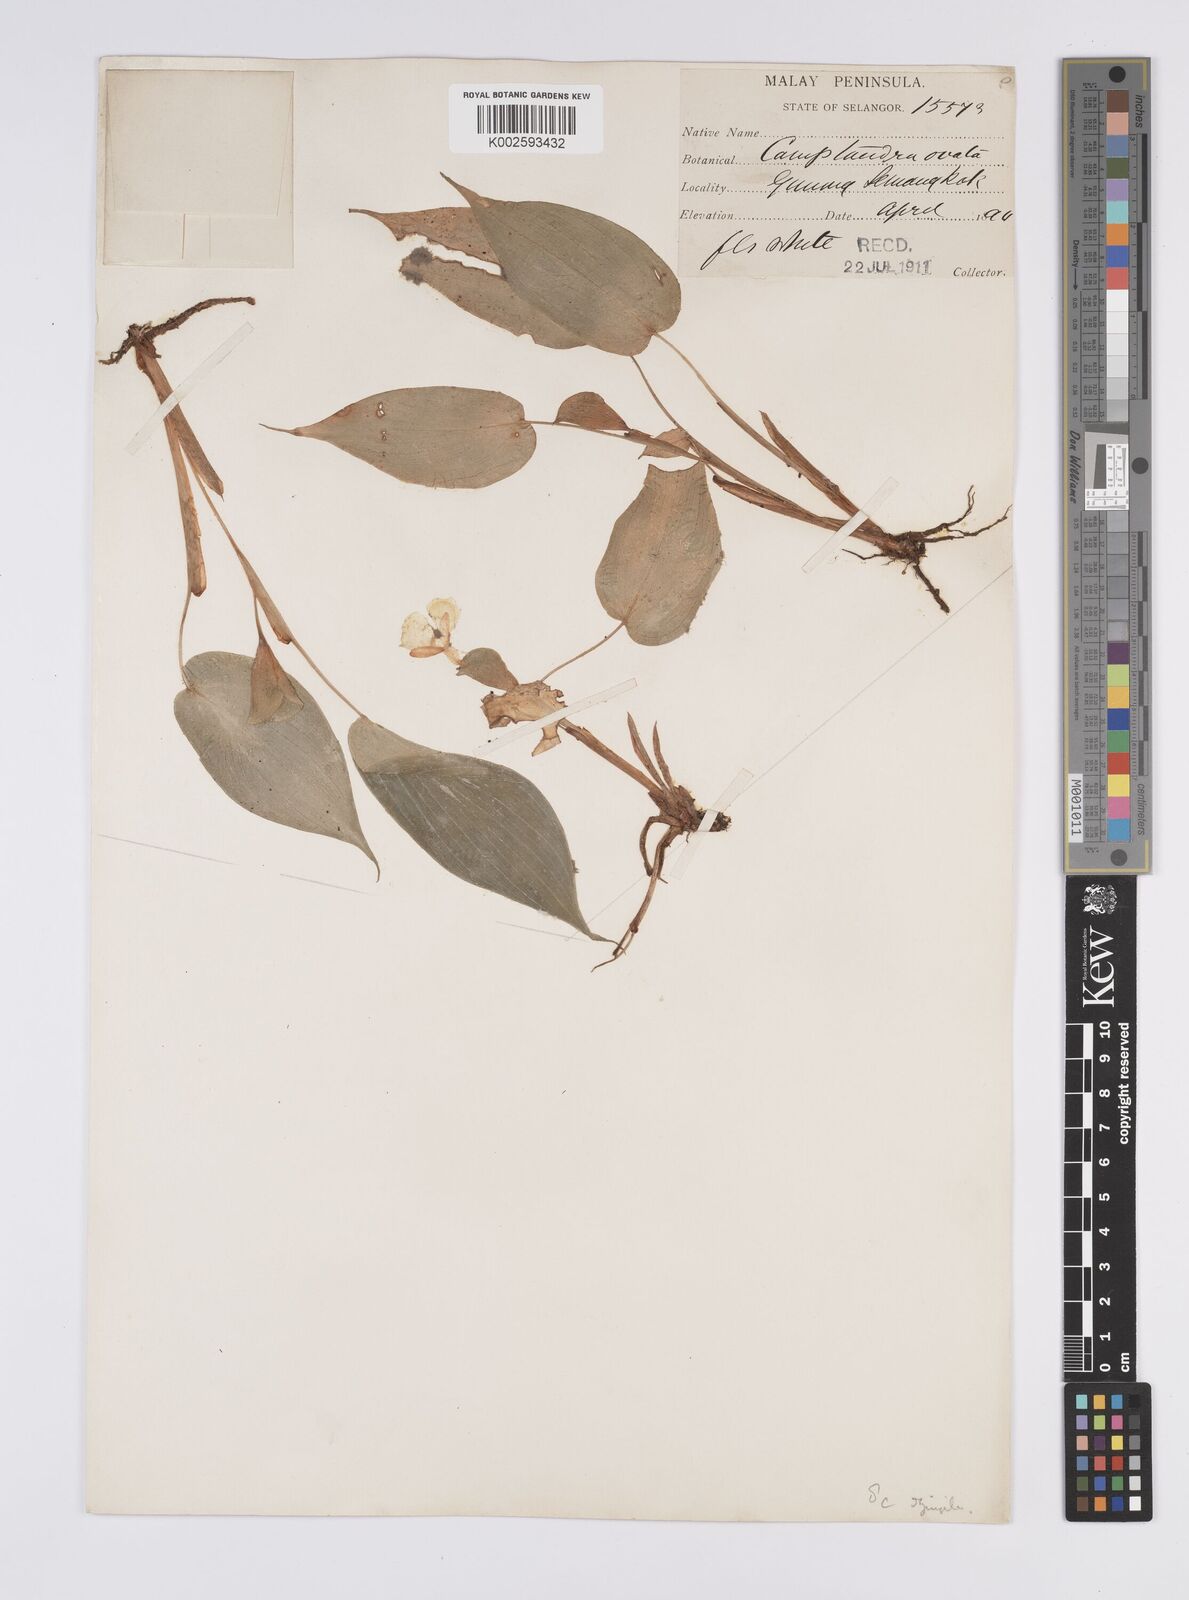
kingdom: Plantae
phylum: Tracheophyta
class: Liliopsida
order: Zingiberales
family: Zingiberaceae
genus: Camptandra
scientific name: Camptandra ovata
